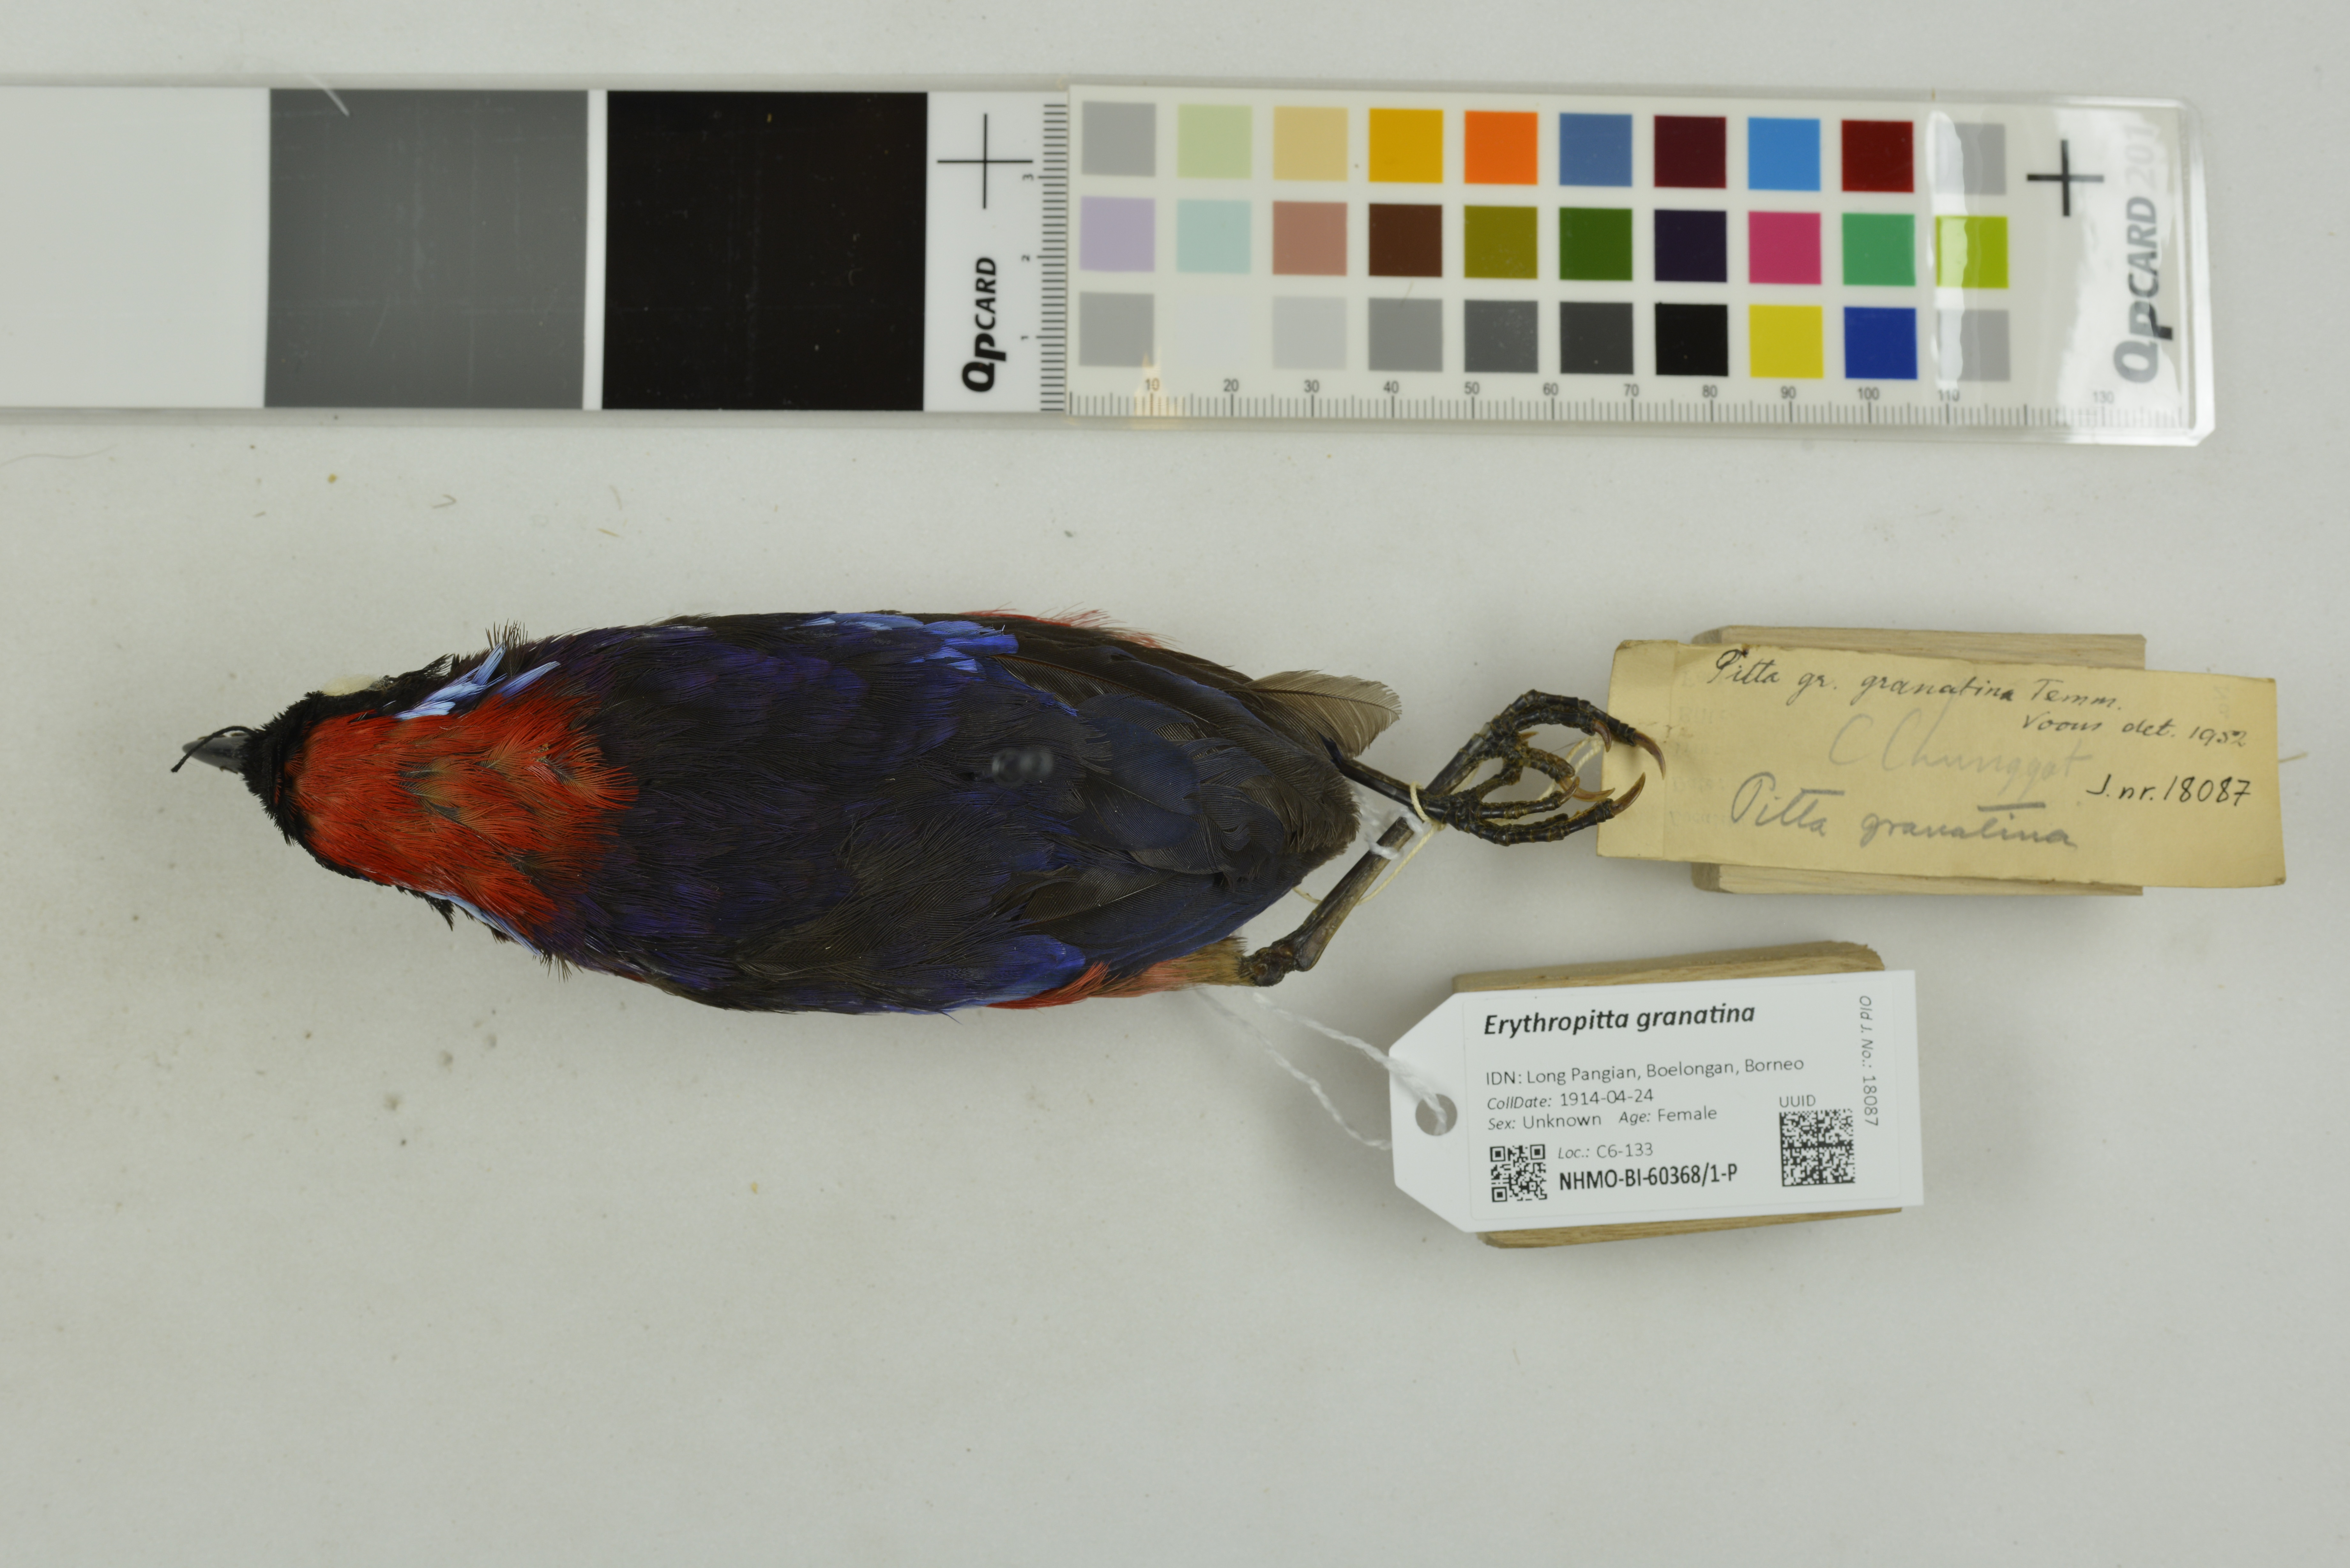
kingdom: Animalia
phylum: Chordata
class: Aves
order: Passeriformes
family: Pittidae
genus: Pitta
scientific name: Pitta granatina
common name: Garnet pitta
